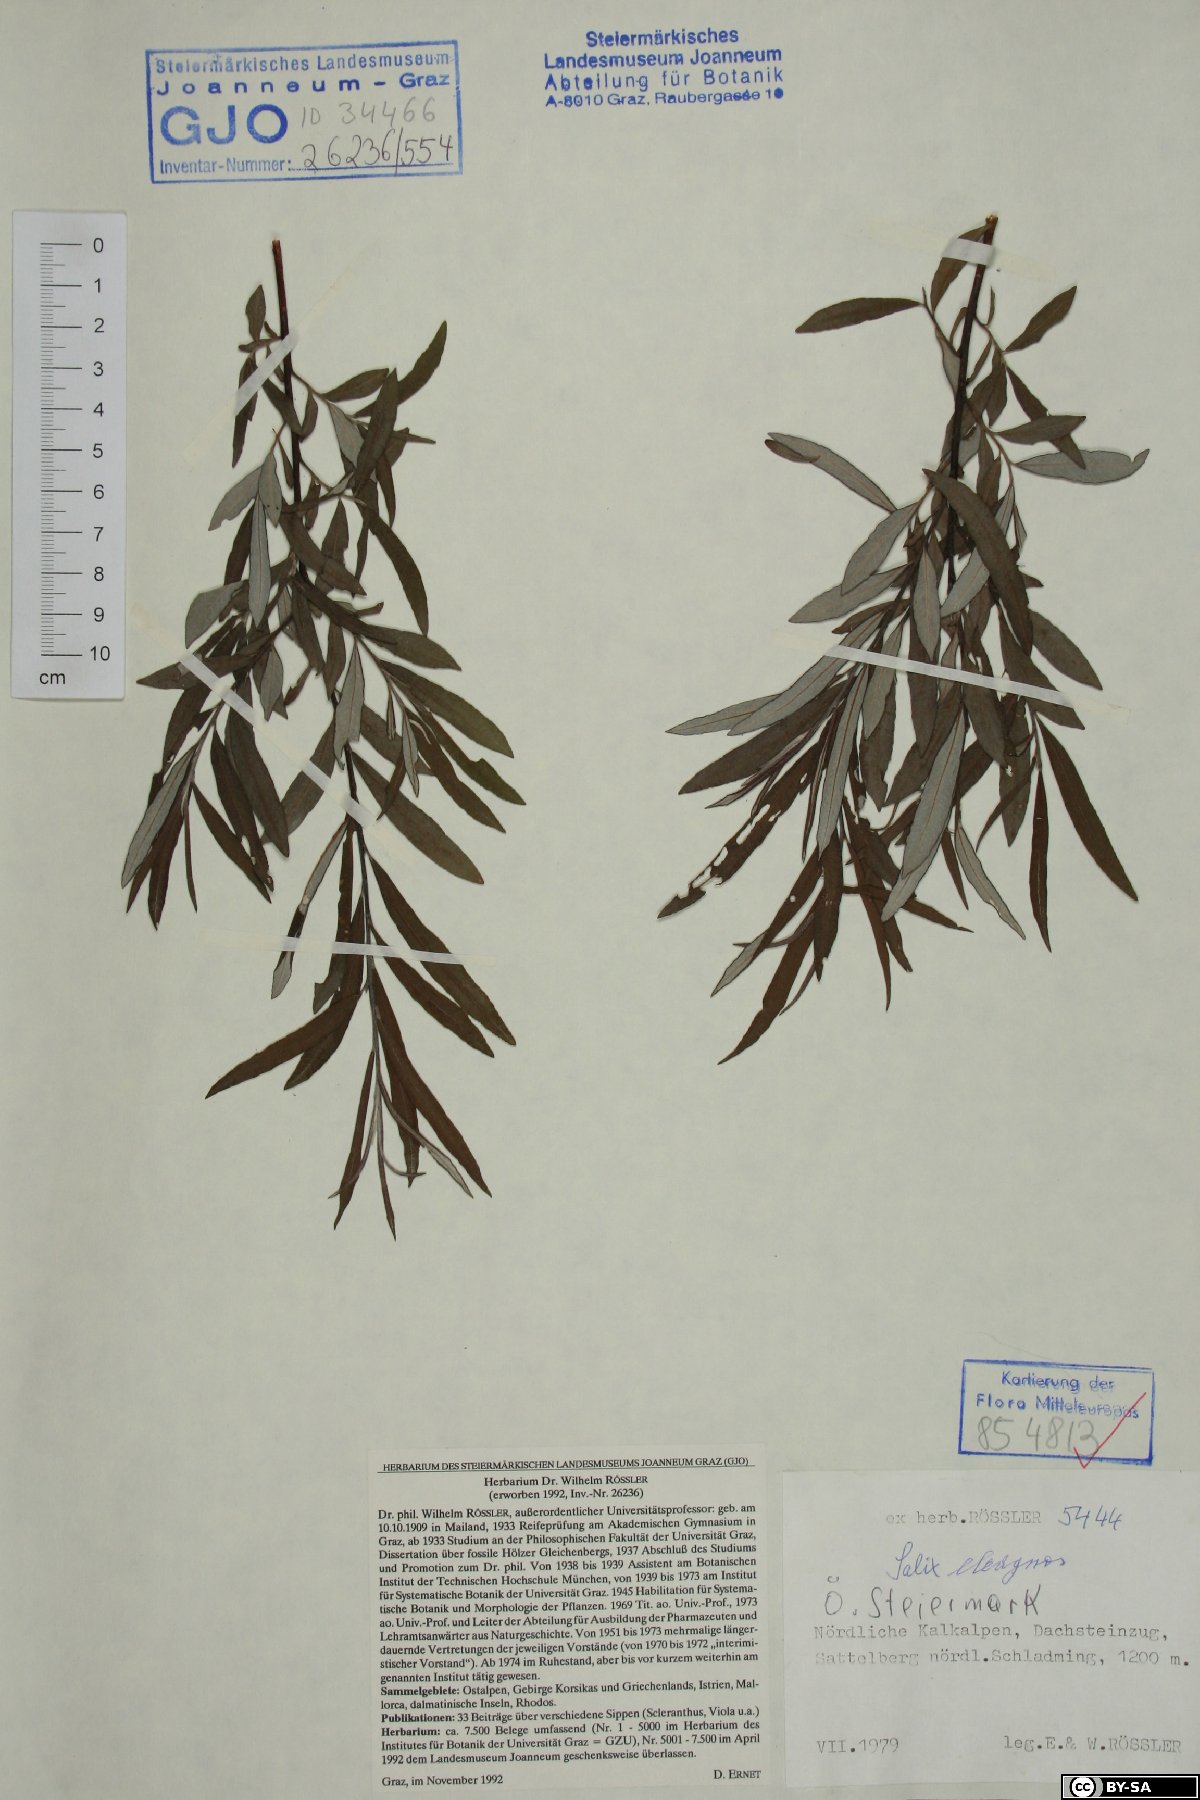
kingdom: Plantae
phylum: Tracheophyta
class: Magnoliopsida
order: Malpighiales
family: Salicaceae
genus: Salix
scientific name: Salix eleagnos
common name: Elaeagnus willow
